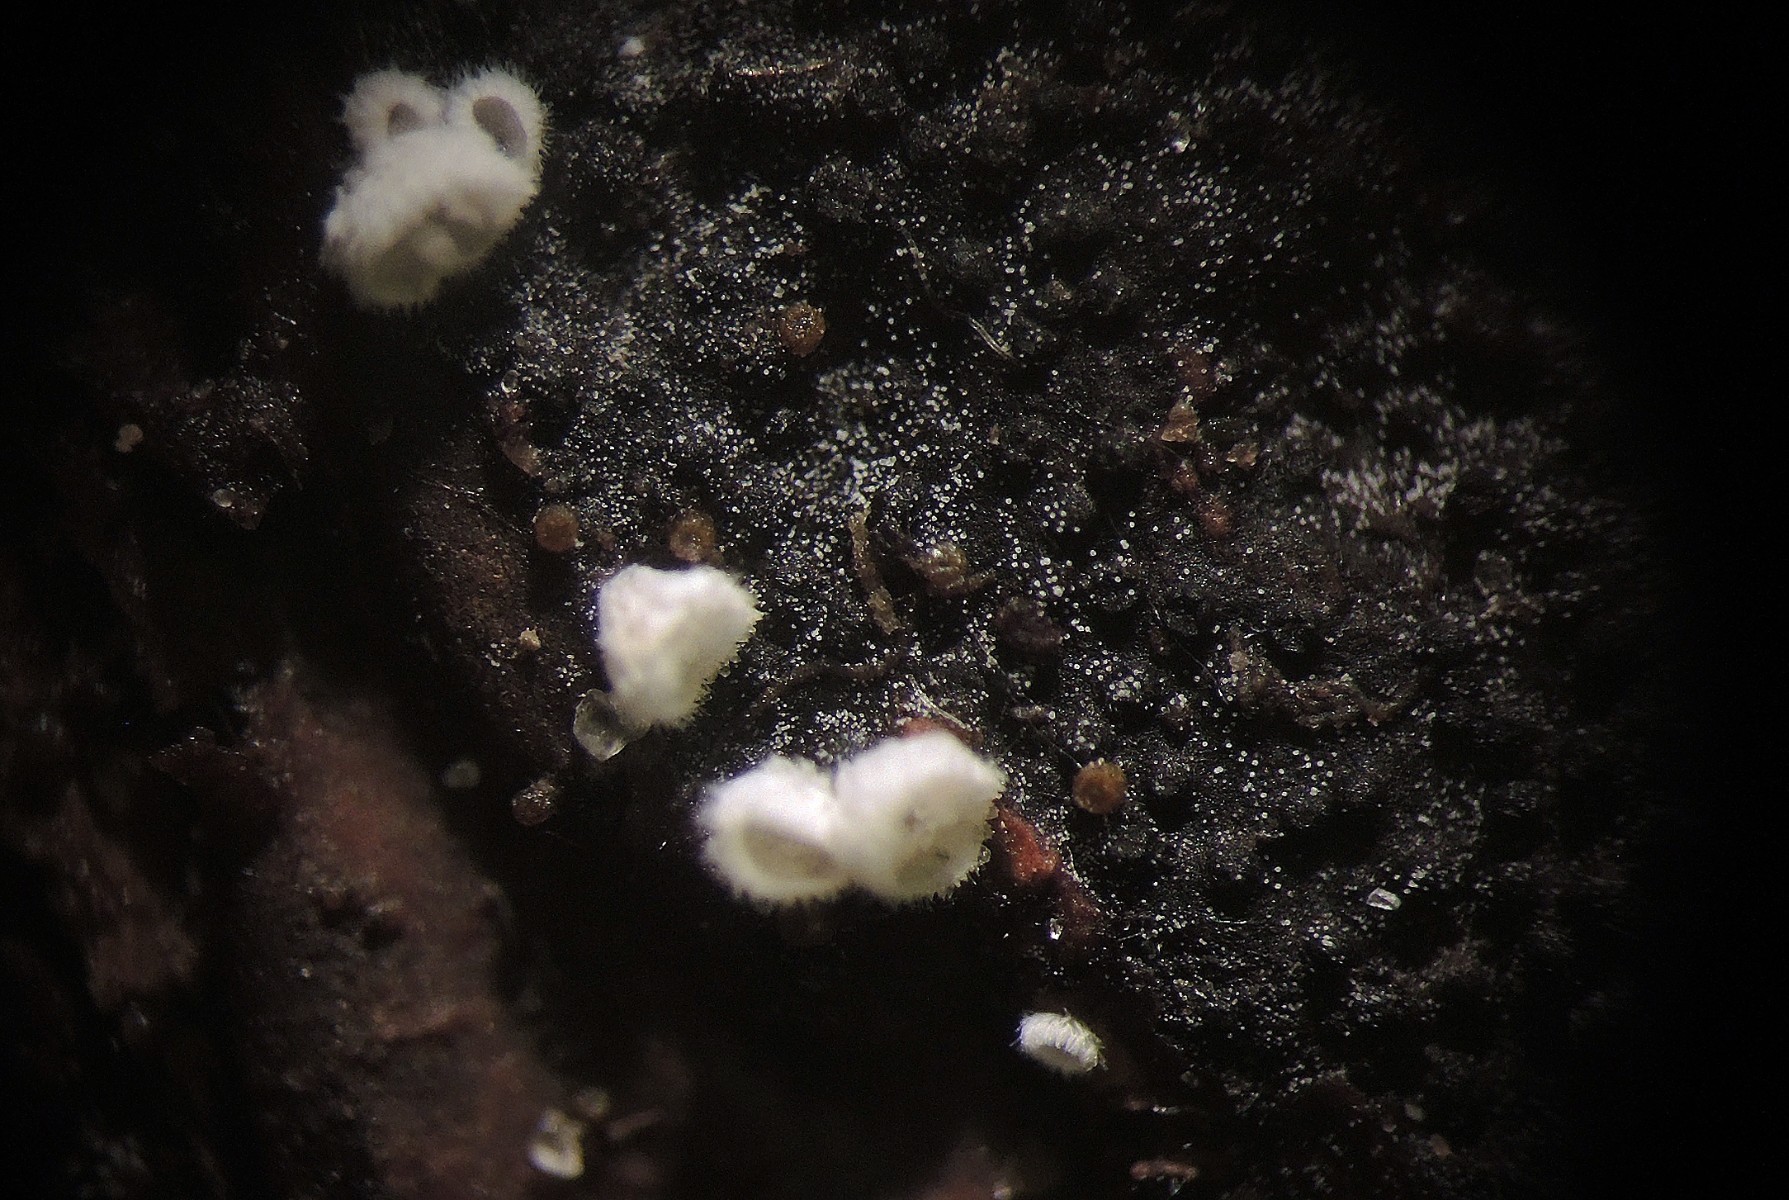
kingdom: Fungi
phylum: Basidiomycota
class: Agaricomycetes
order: Agaricales
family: Niaceae
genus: Flagelloscypha
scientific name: Flagelloscypha minutissima
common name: lille hængeskål
